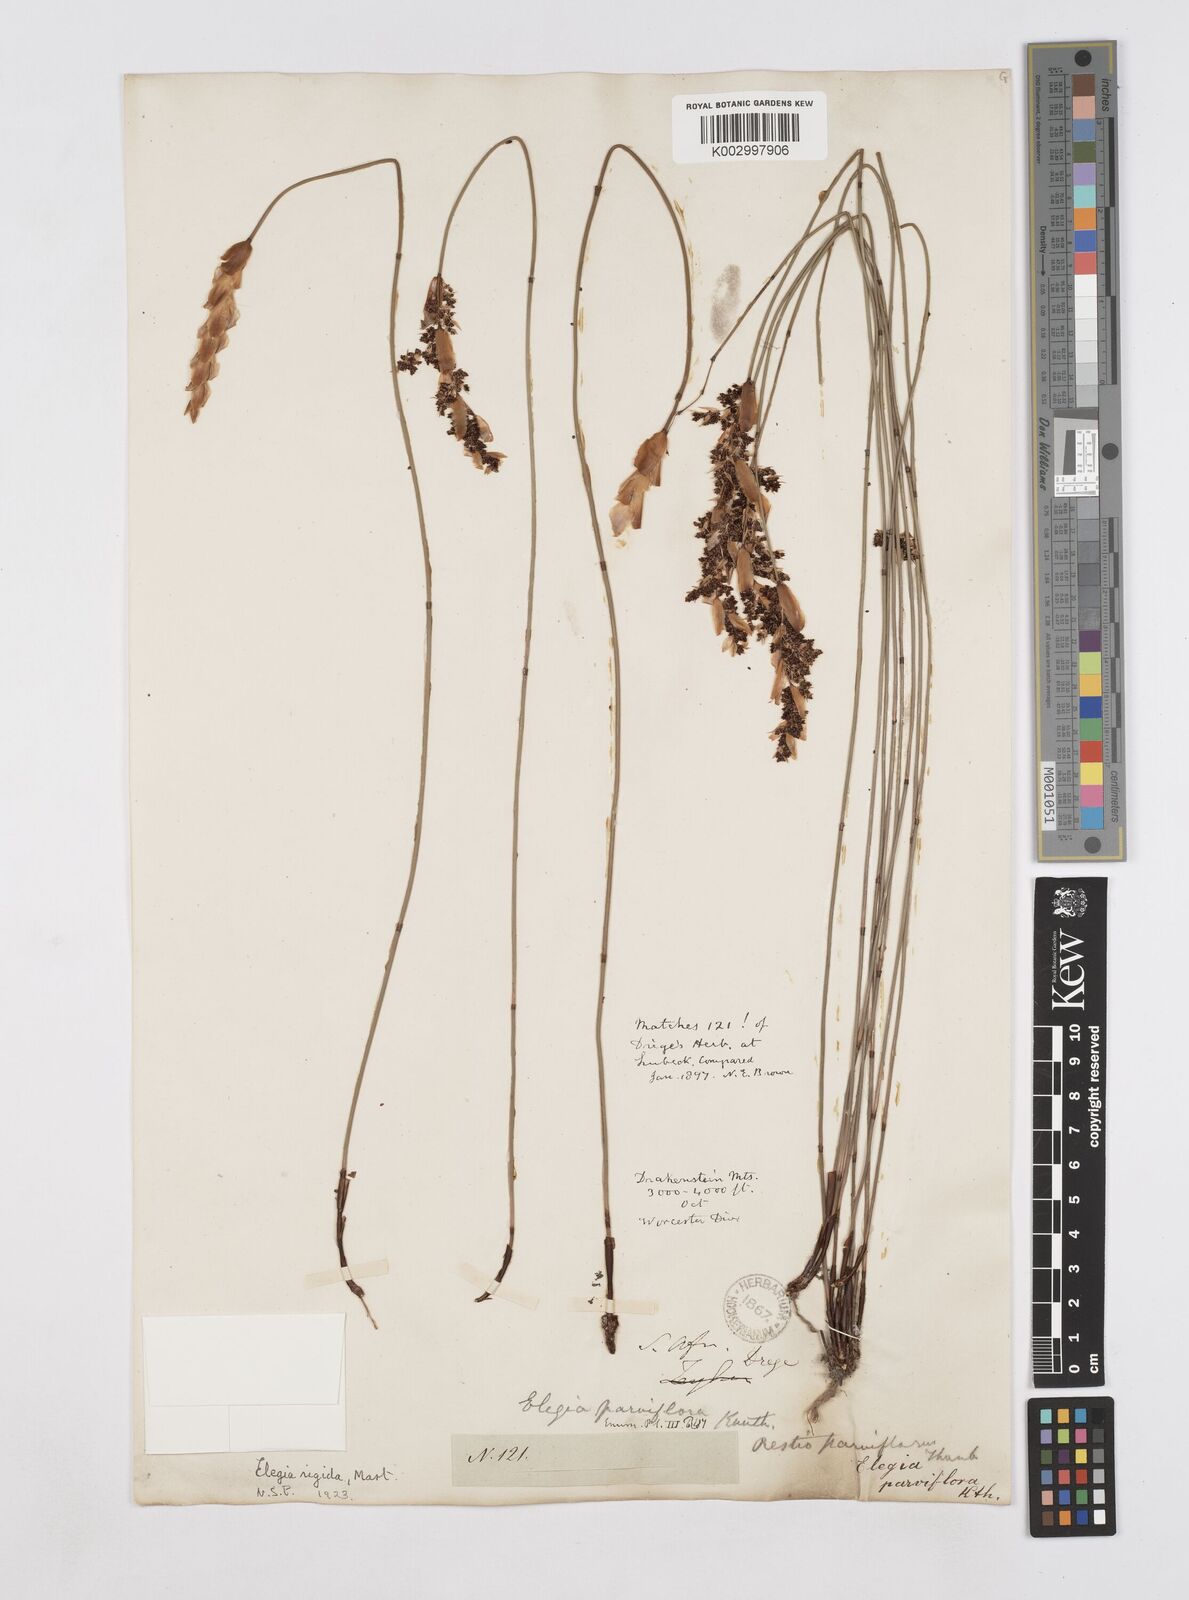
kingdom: Plantae
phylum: Tracheophyta
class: Liliopsida
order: Poales
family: Restionaceae
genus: Elegia
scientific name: Elegia rigida
